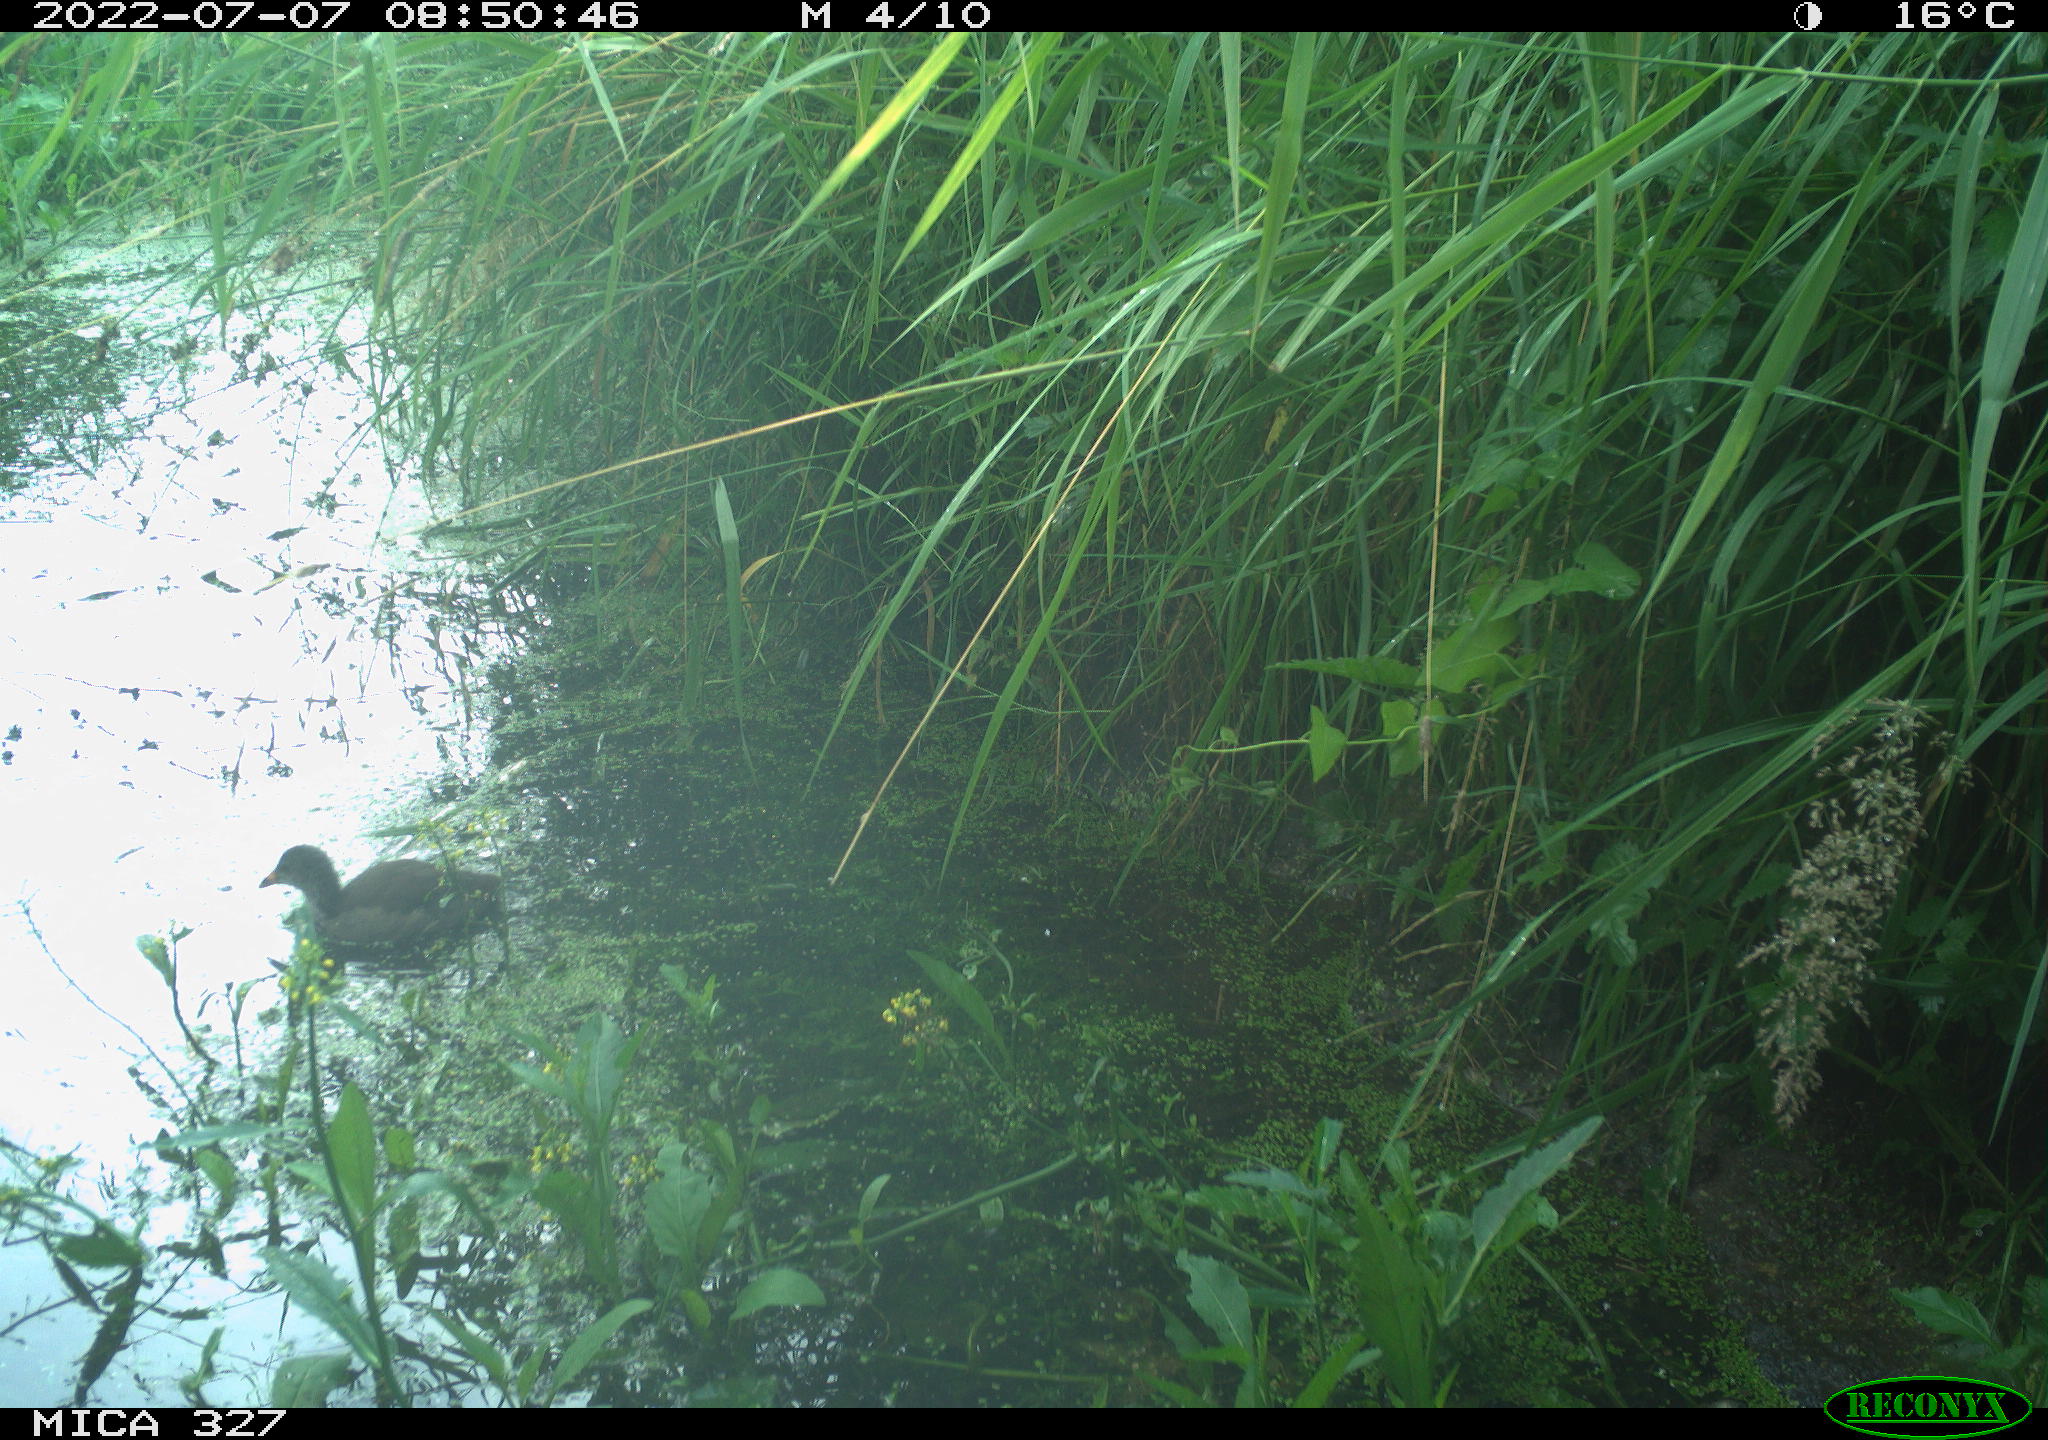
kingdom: Animalia
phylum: Chordata
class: Aves
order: Gruiformes
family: Rallidae
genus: Gallinula
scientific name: Gallinula chloropus
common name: Common moorhen
